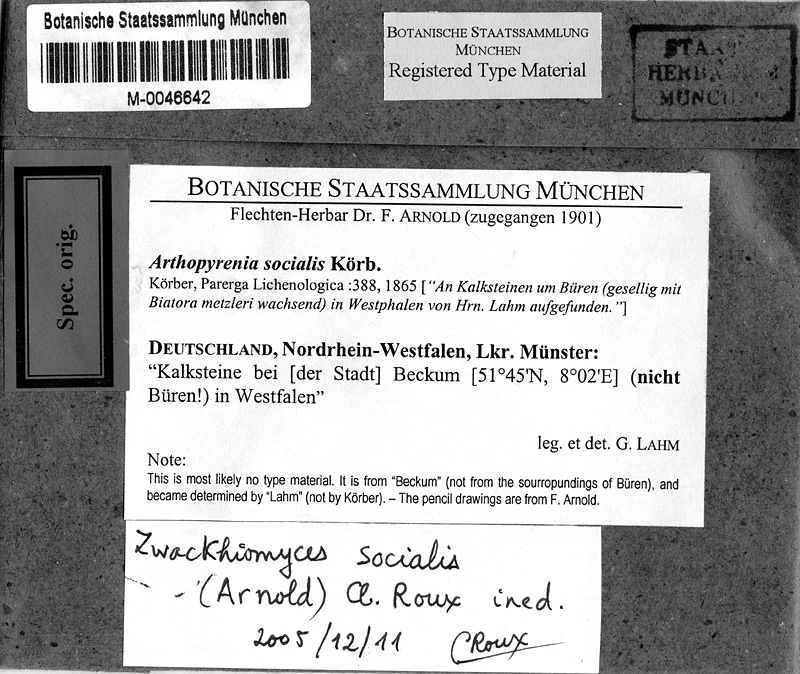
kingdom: Fungi
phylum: Ascomycota
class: Lecanoromycetes
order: Lecideales
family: Lecideaceae
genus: Clauzadea
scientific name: Clauzadea metzleri
